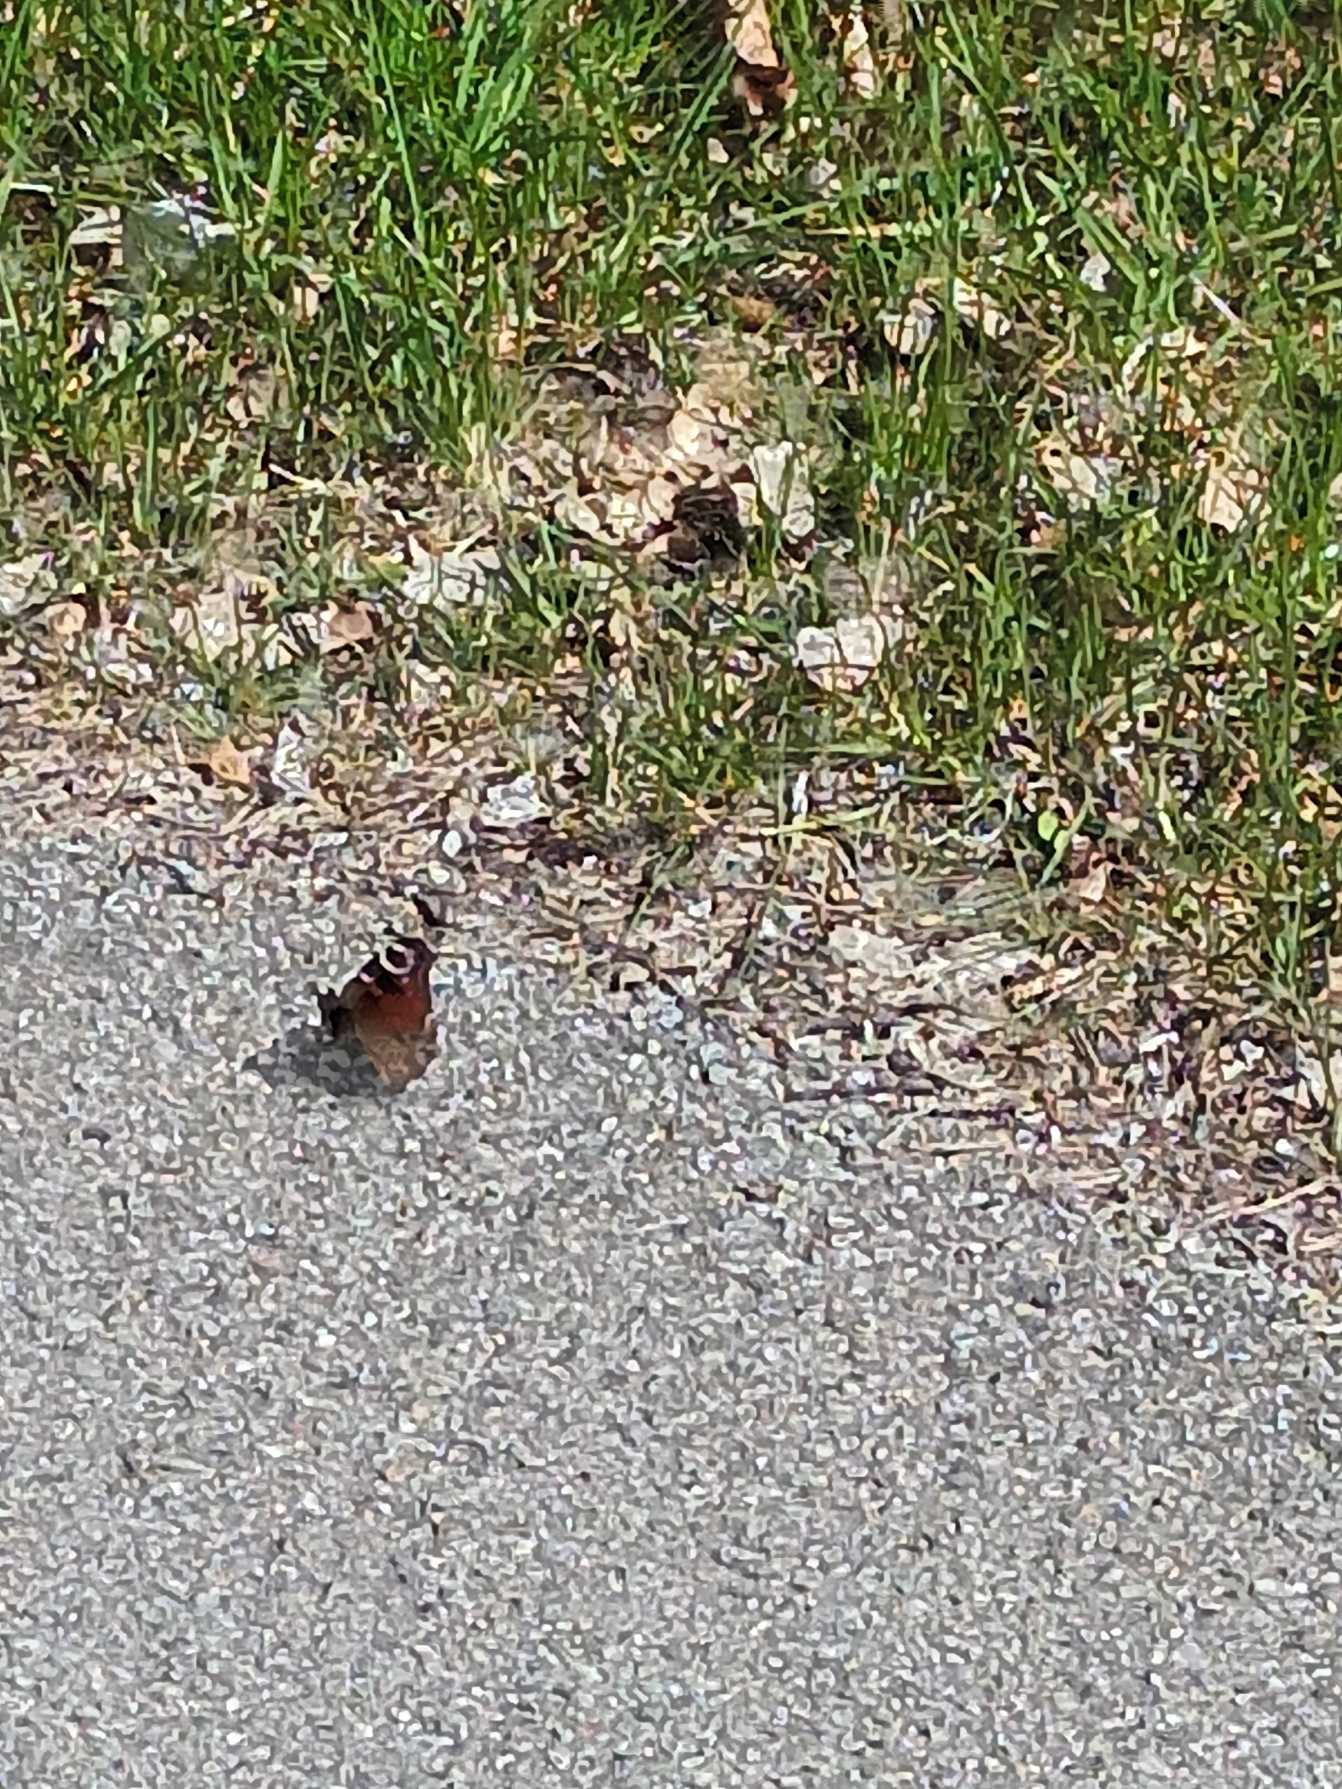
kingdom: Animalia
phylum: Arthropoda
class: Insecta
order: Lepidoptera
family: Nymphalidae
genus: Aglais
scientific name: Aglais io
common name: Dagpåfugleøje
